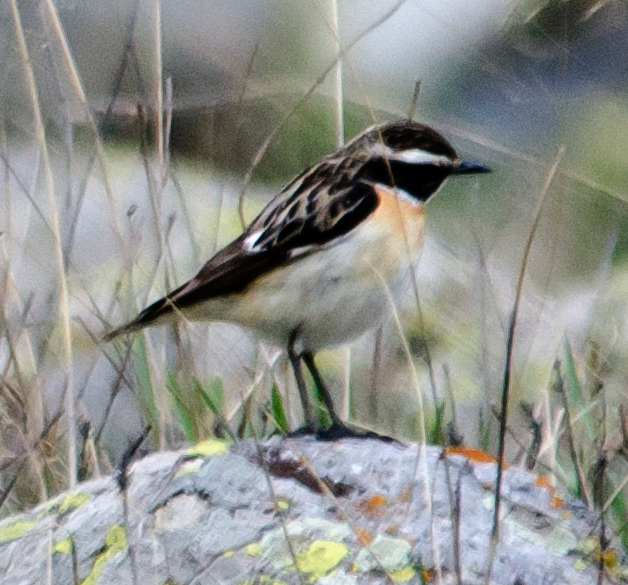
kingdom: Animalia
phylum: Chordata
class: Aves
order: Passeriformes
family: Muscicapidae
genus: Saxicola
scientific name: Saxicola rubetra
